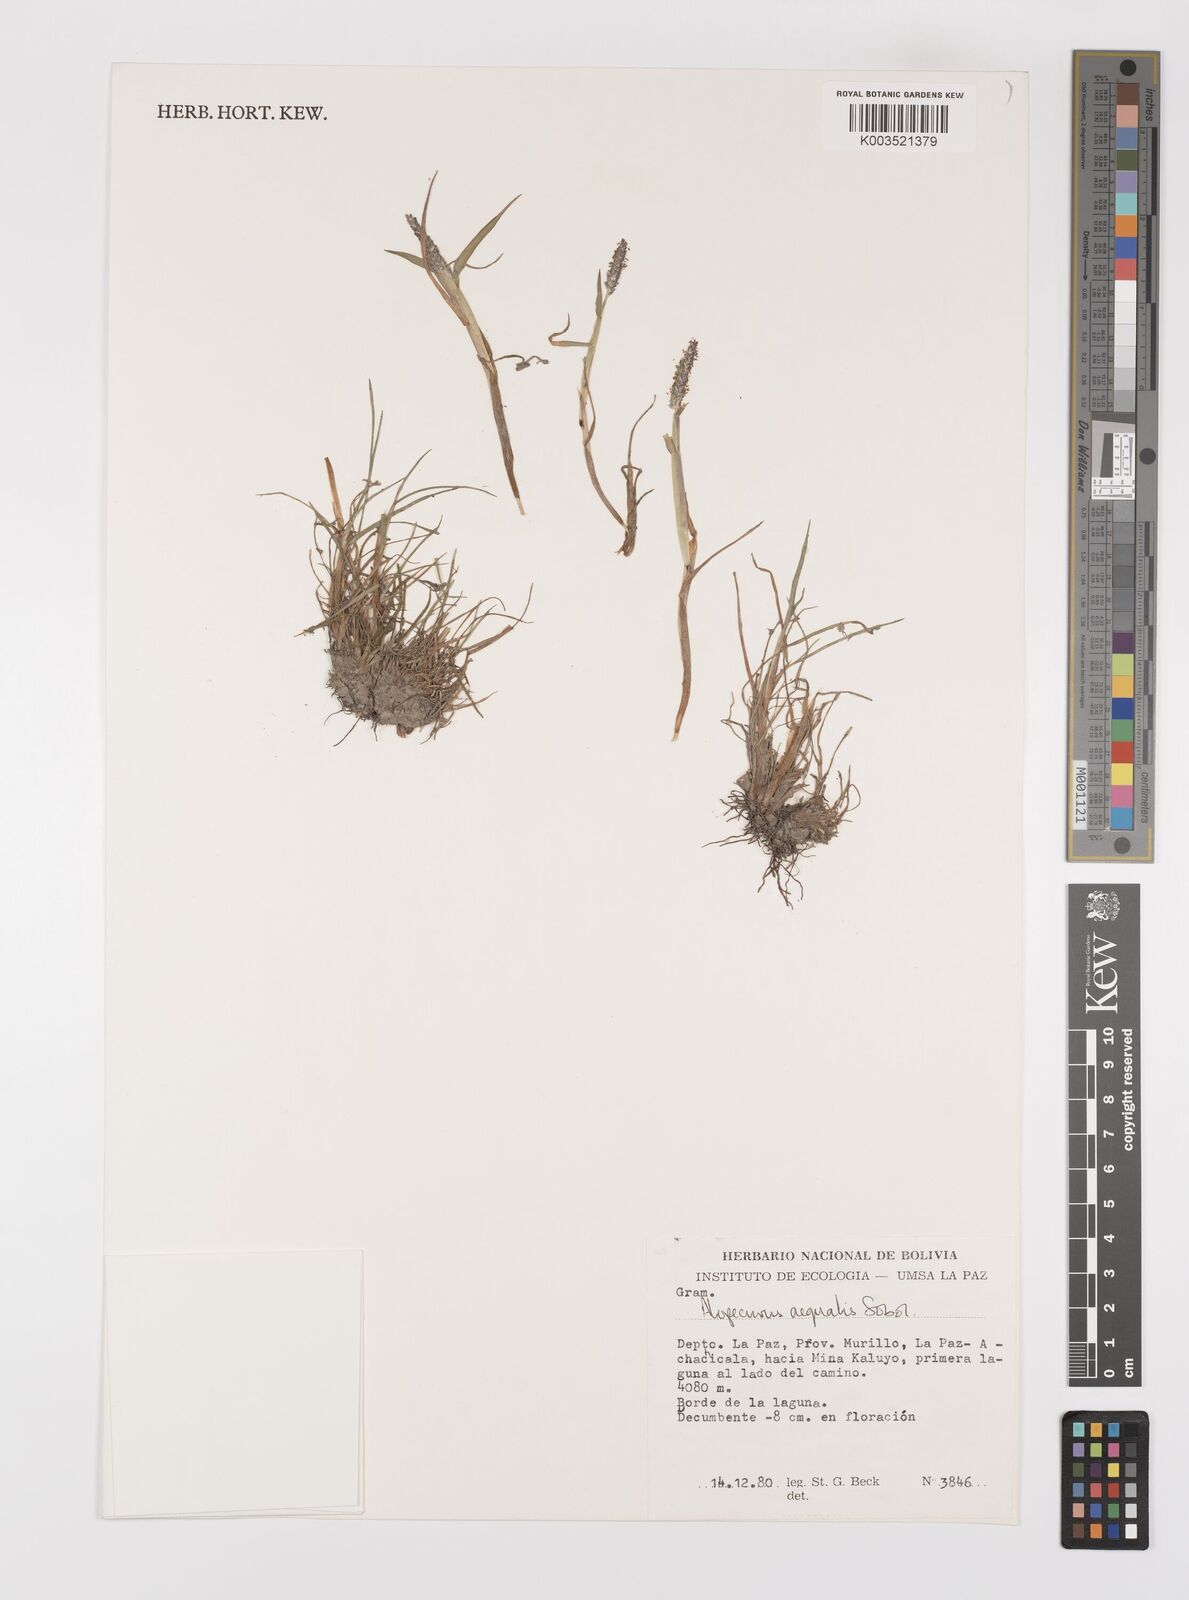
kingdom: Plantae
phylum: Tracheophyta
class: Liliopsida
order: Poales
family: Poaceae
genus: Alopecurus
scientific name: Alopecurus hitchcockii
